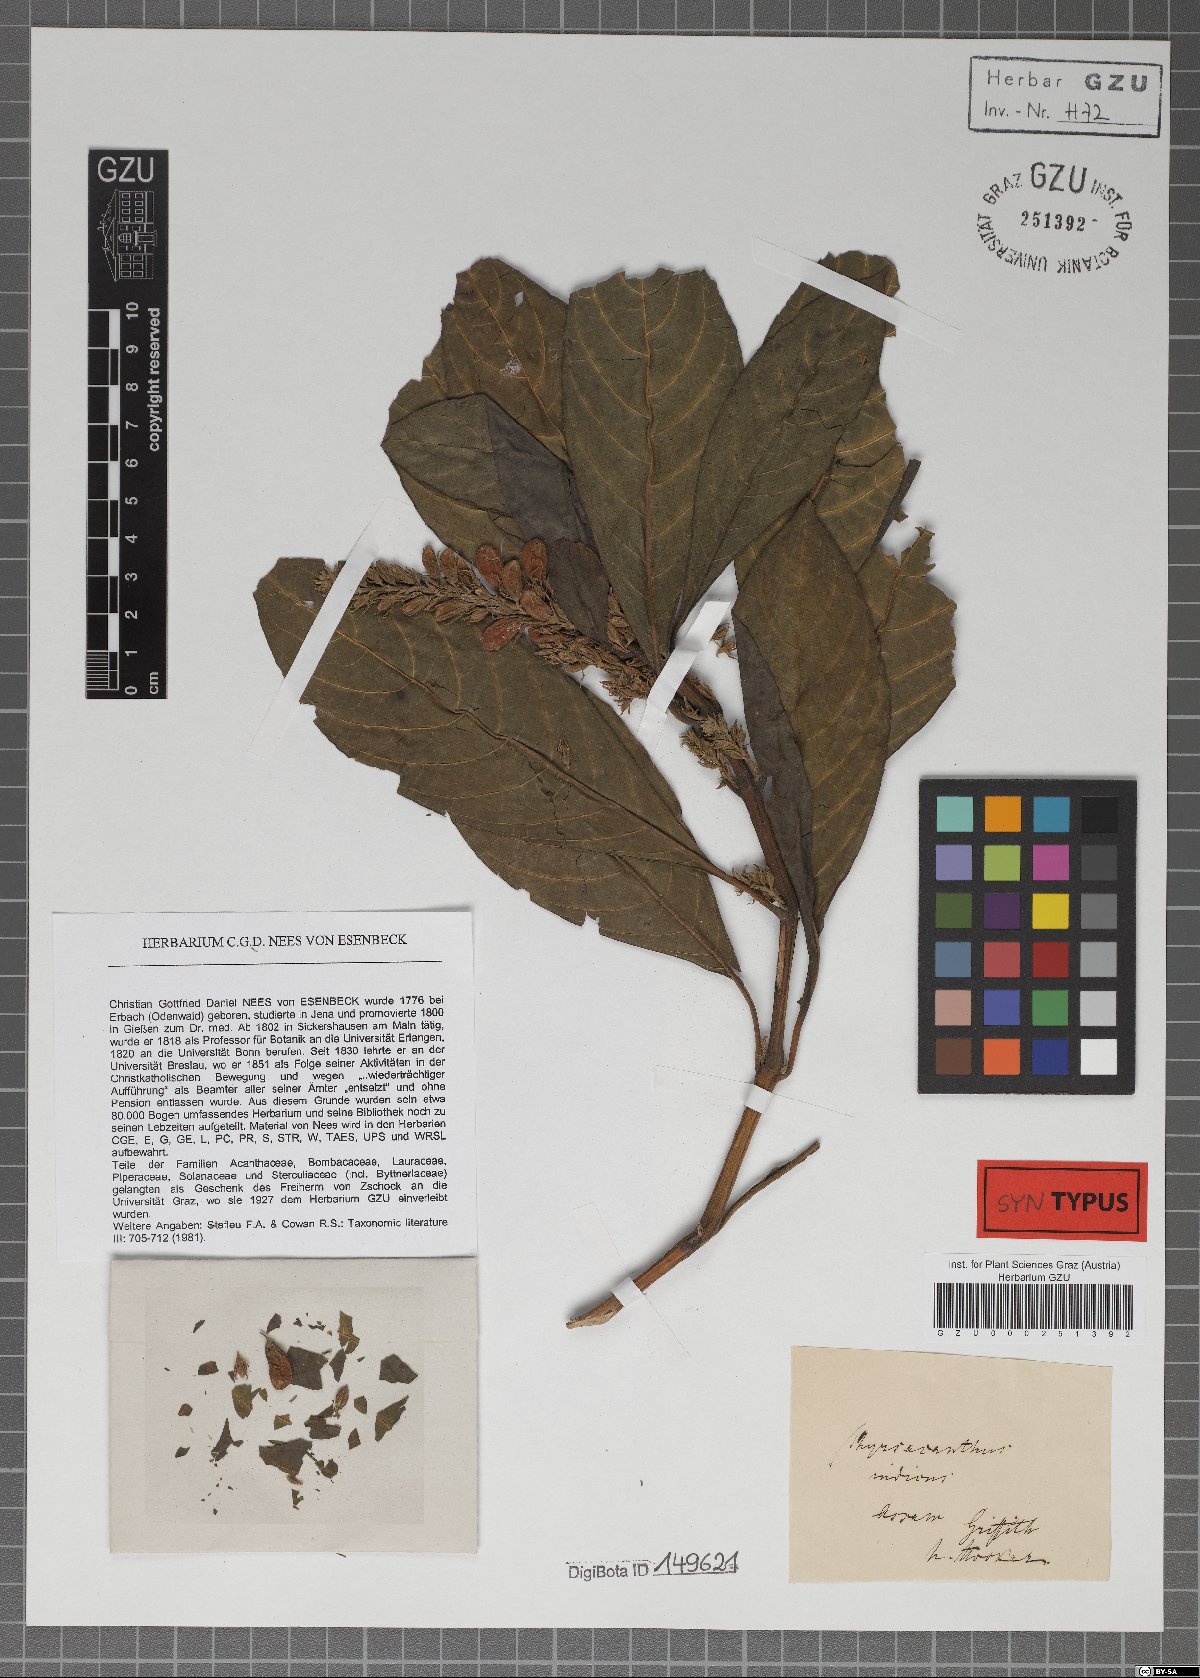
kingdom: Plantae
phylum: Tracheophyta
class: Magnoliopsida
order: Lamiales
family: Acanthaceae
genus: Mackaya
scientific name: Mackaya indica
